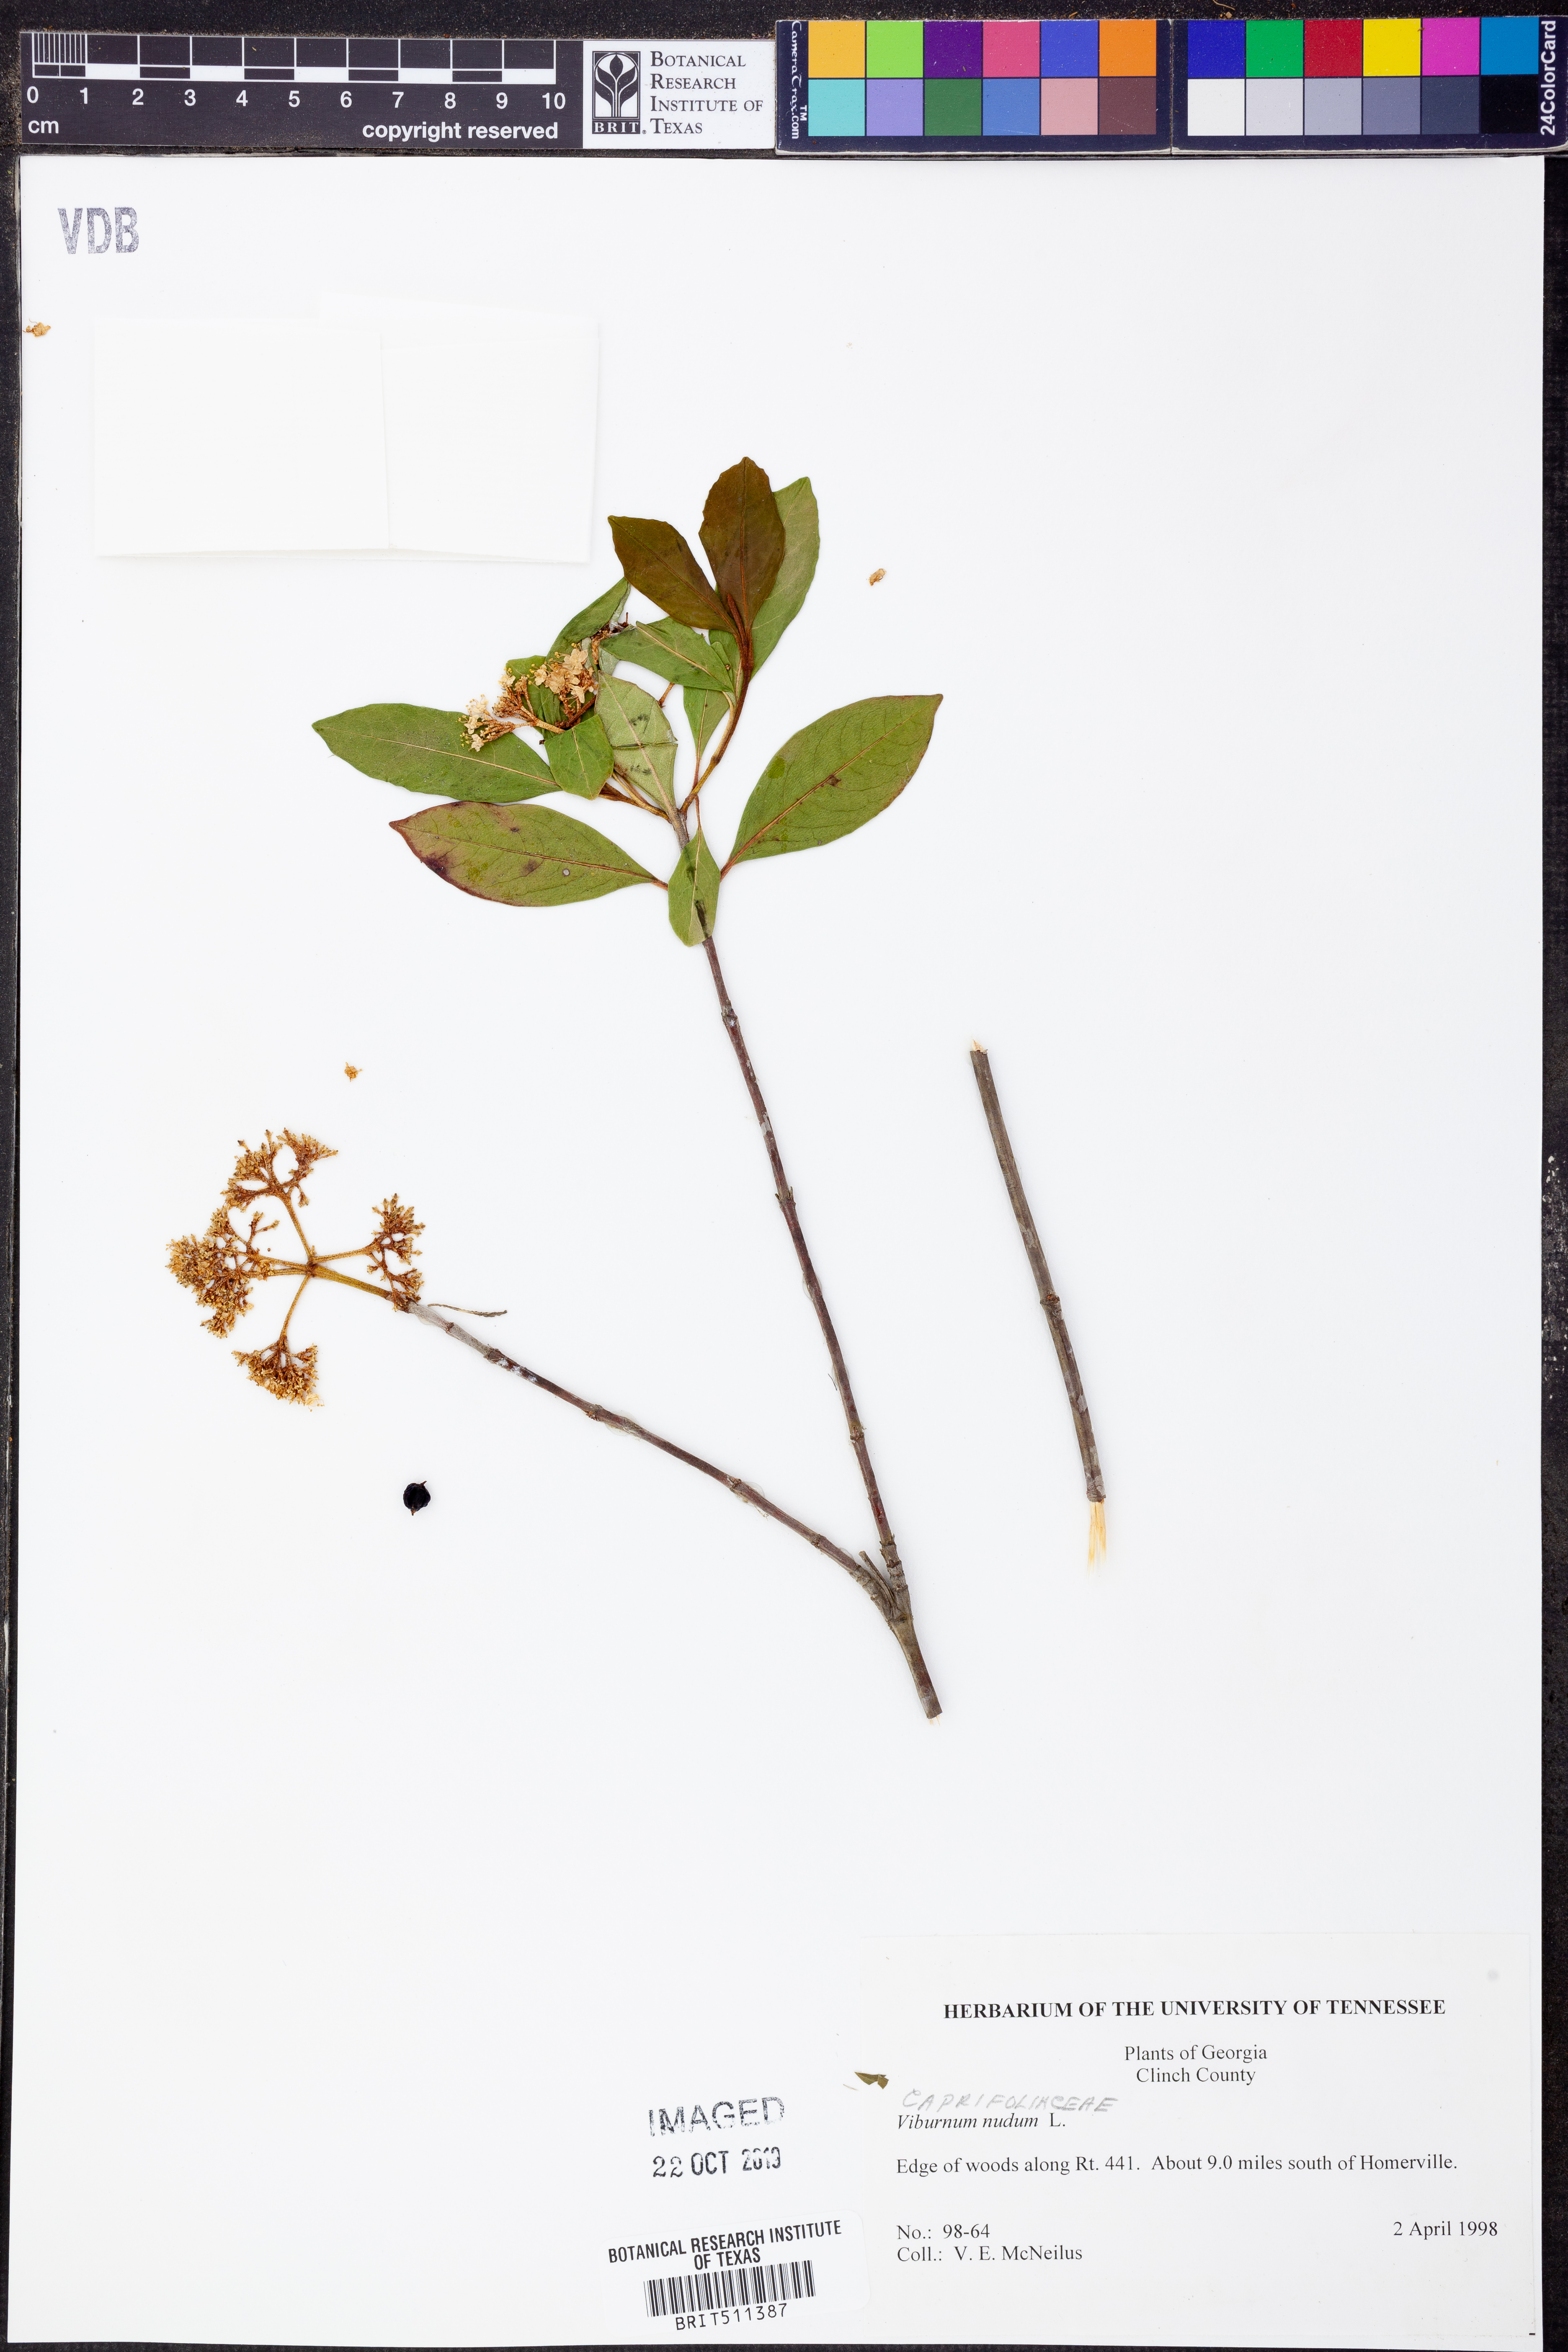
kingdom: Plantae
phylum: Tracheophyta
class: Magnoliopsida
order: Dipsacales
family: Viburnaceae
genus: Viburnum
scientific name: Viburnum nudum
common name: Possum haw
